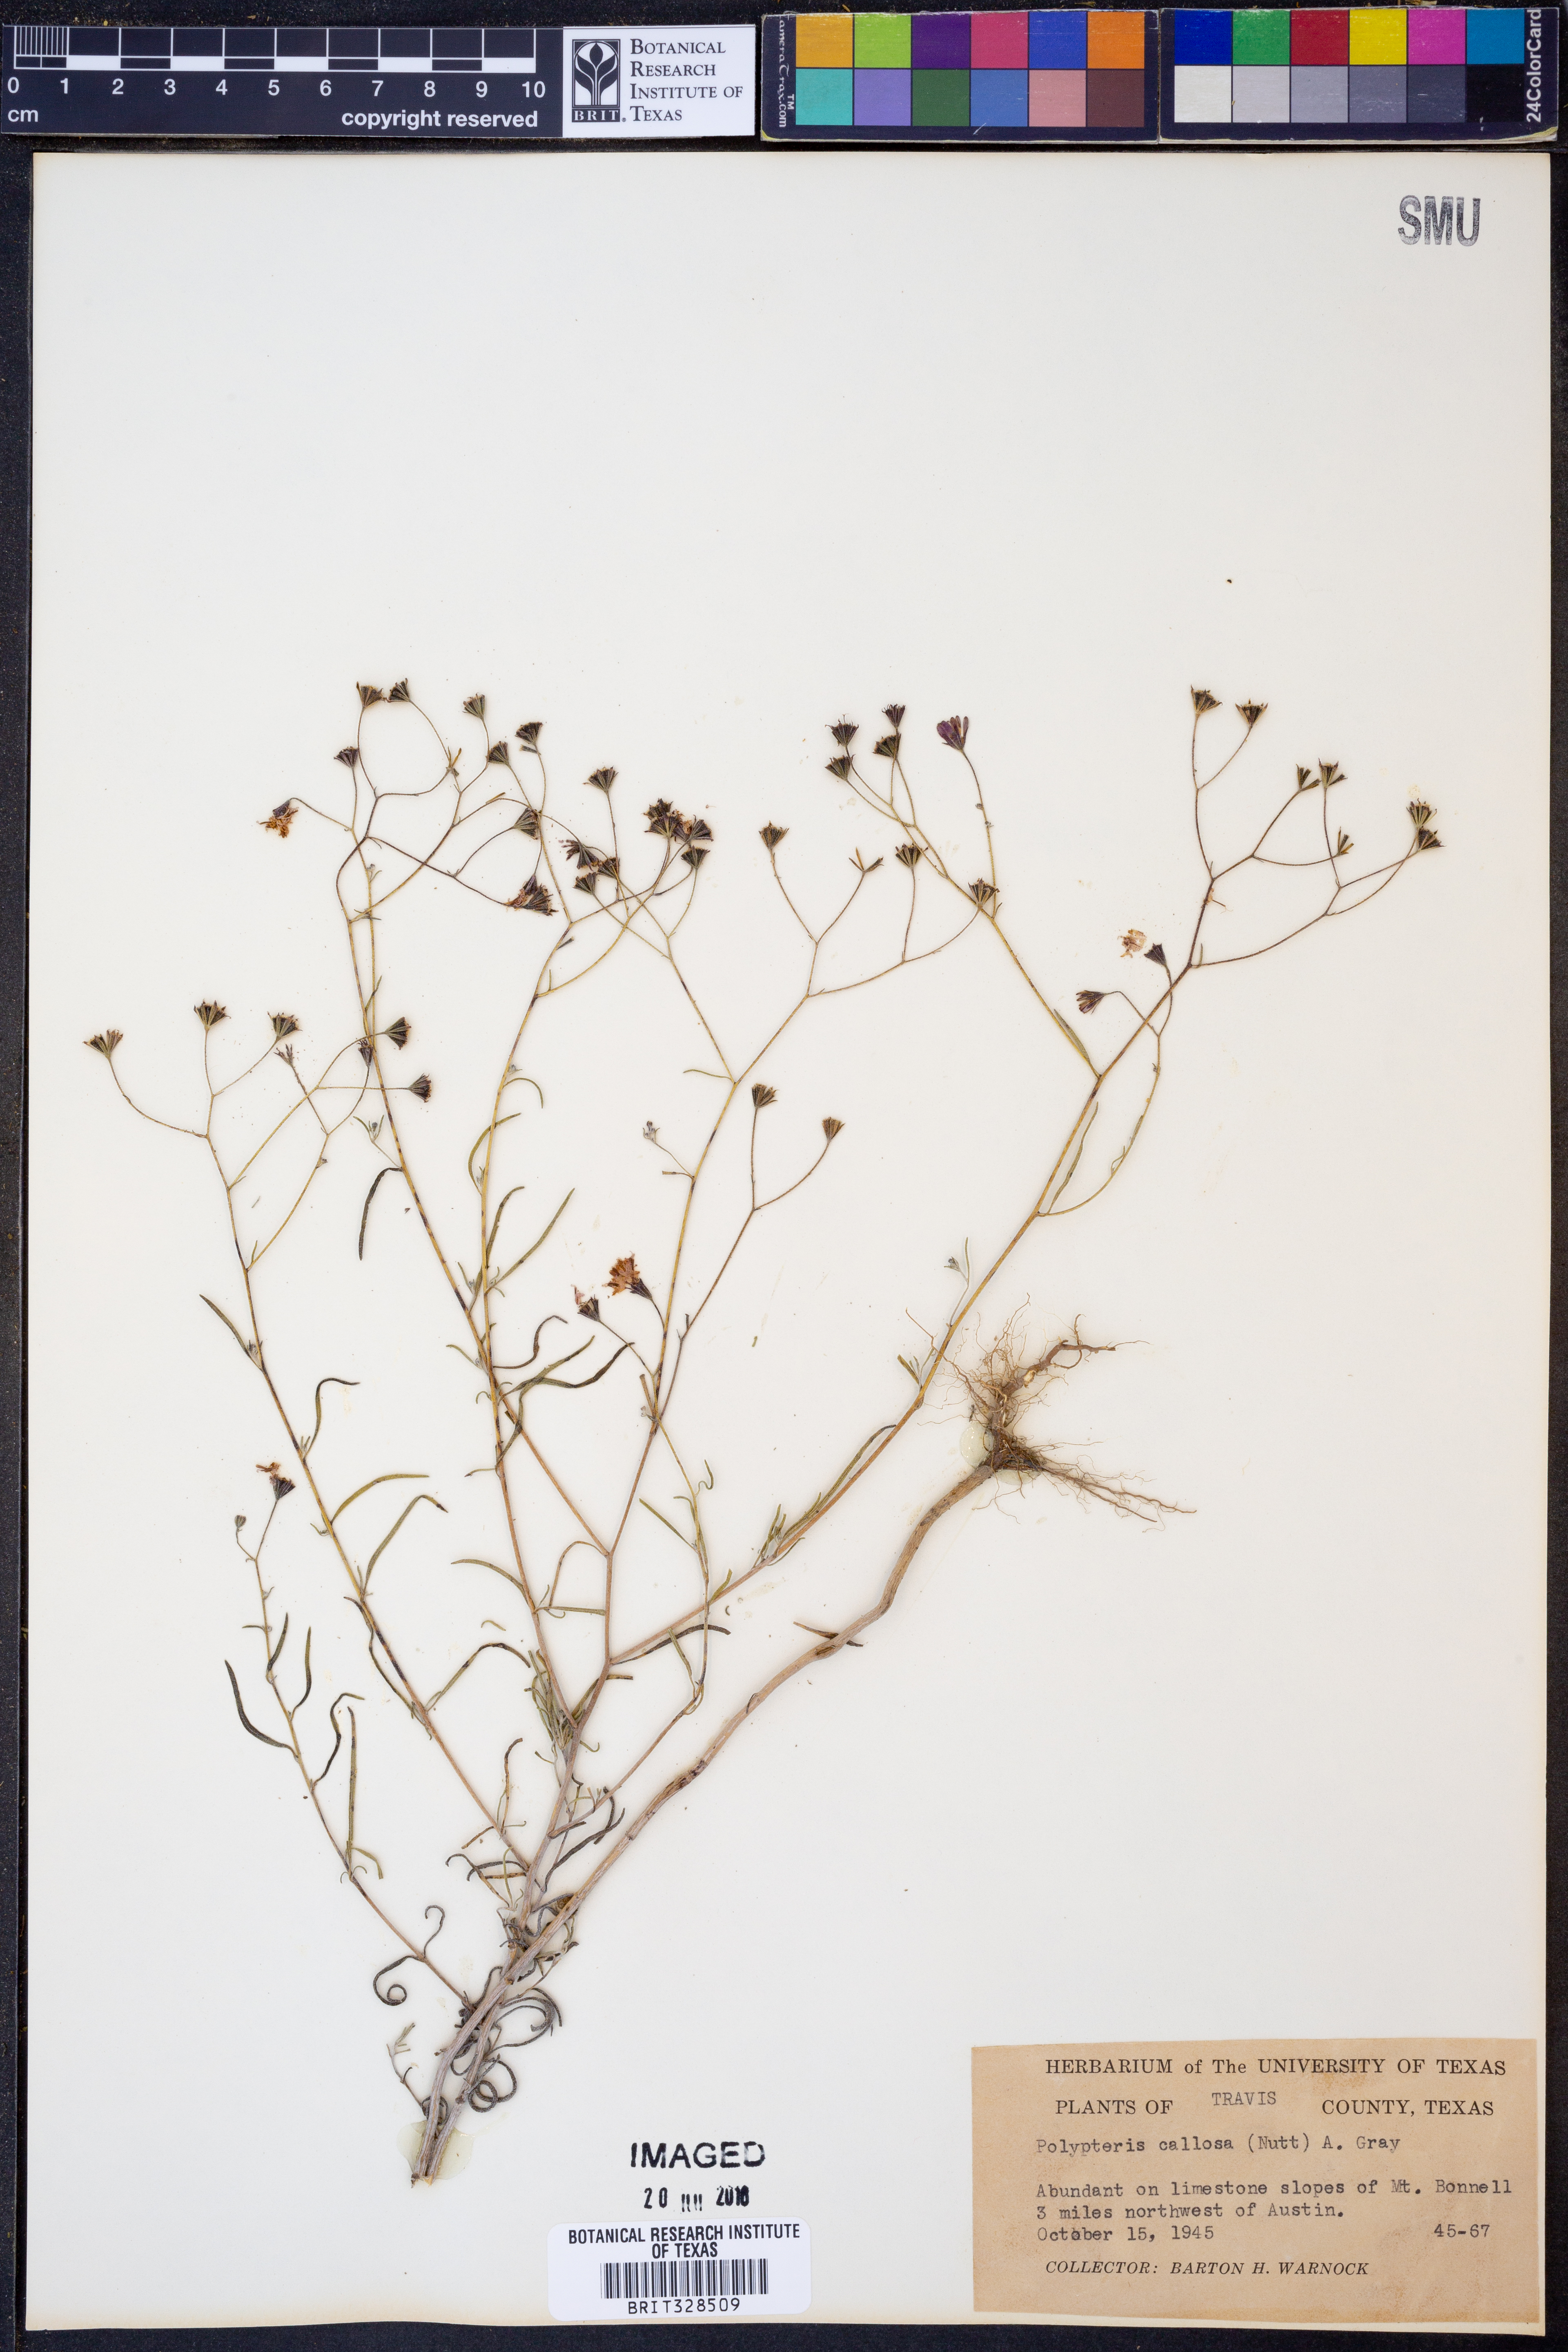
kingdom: Plantae
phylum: Tracheophyta
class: Magnoliopsida
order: Asterales
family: Asteraceae
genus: Palafoxia
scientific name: Palafoxia callosa
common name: Small palafox
